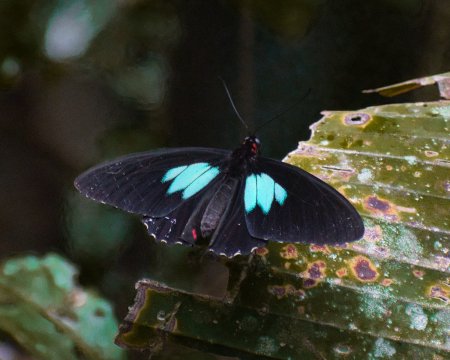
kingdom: Animalia
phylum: Arthropoda
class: Insecta
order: Lepidoptera
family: Papilionidae
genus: Parides
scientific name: Parides sesostris
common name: Emerald-patched Cattleheart
